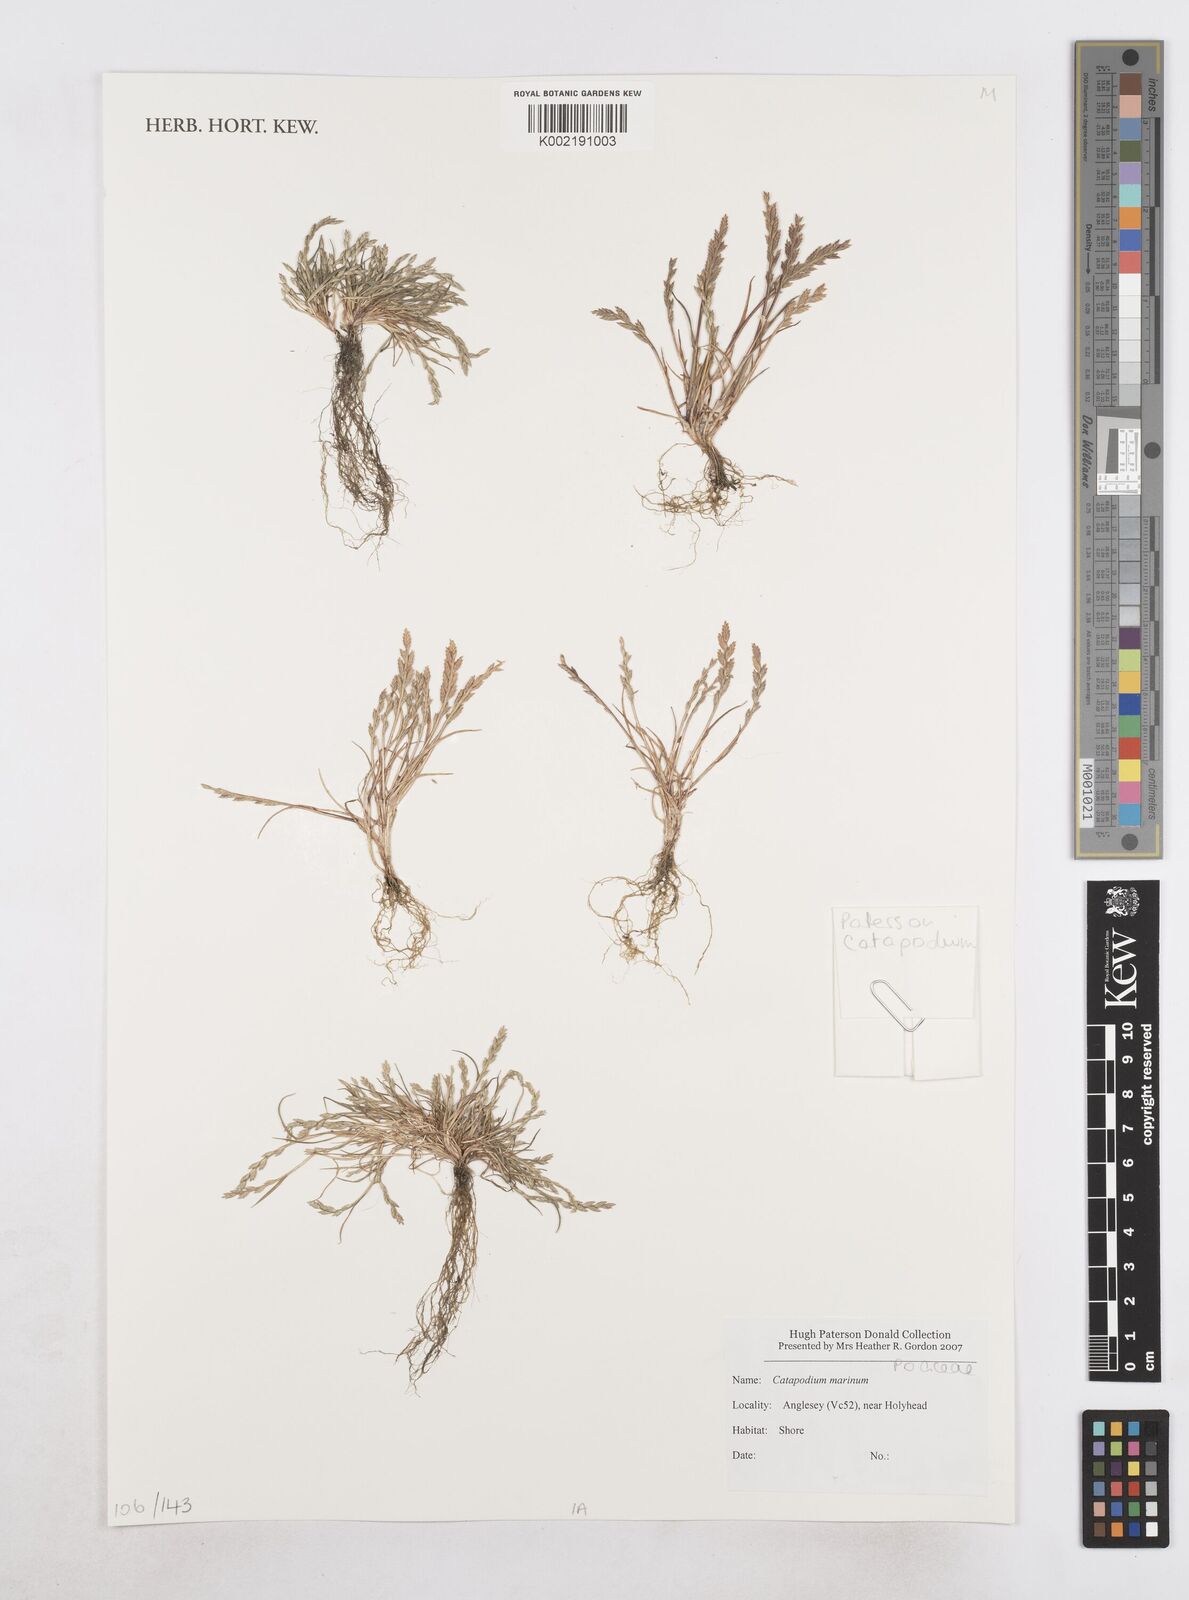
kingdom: Plantae
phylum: Tracheophyta
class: Liliopsida
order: Poales
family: Poaceae
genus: Catapodium
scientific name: Catapodium marinum
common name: Sea fern-grass
